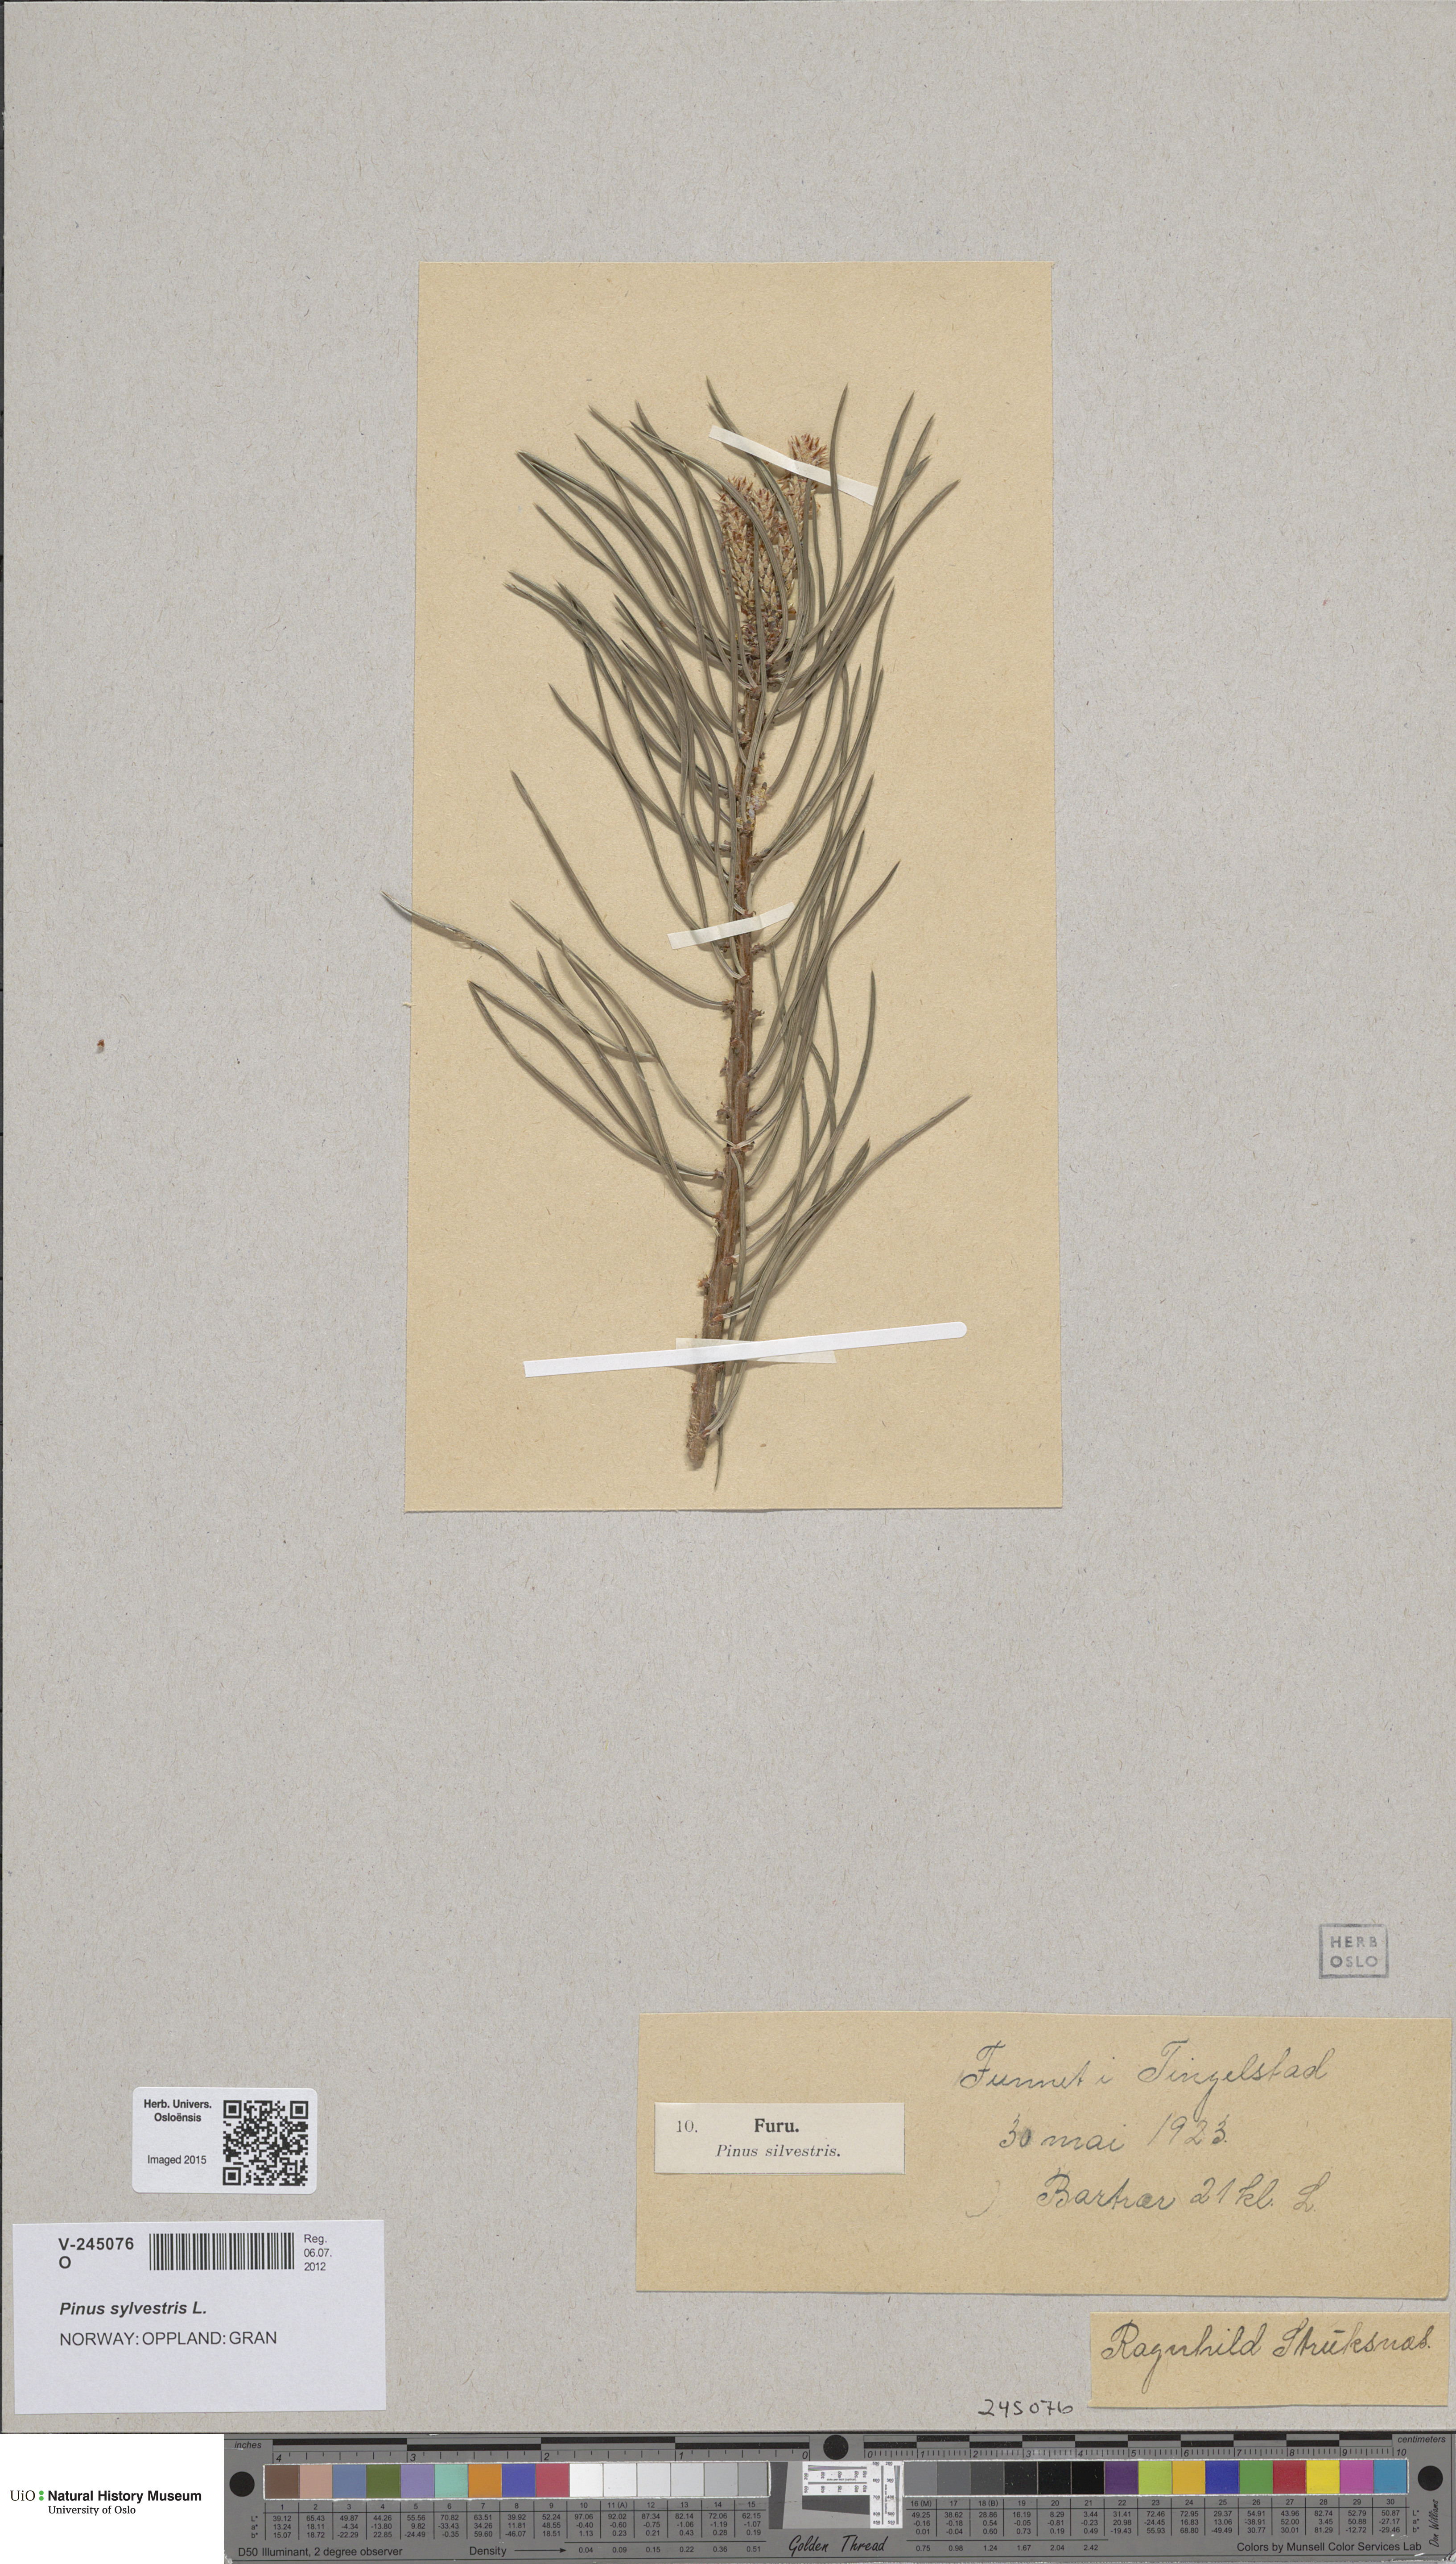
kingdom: Plantae
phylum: Tracheophyta
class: Pinopsida
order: Pinales
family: Pinaceae
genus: Pinus
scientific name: Pinus sylvestris
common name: Scots pine
